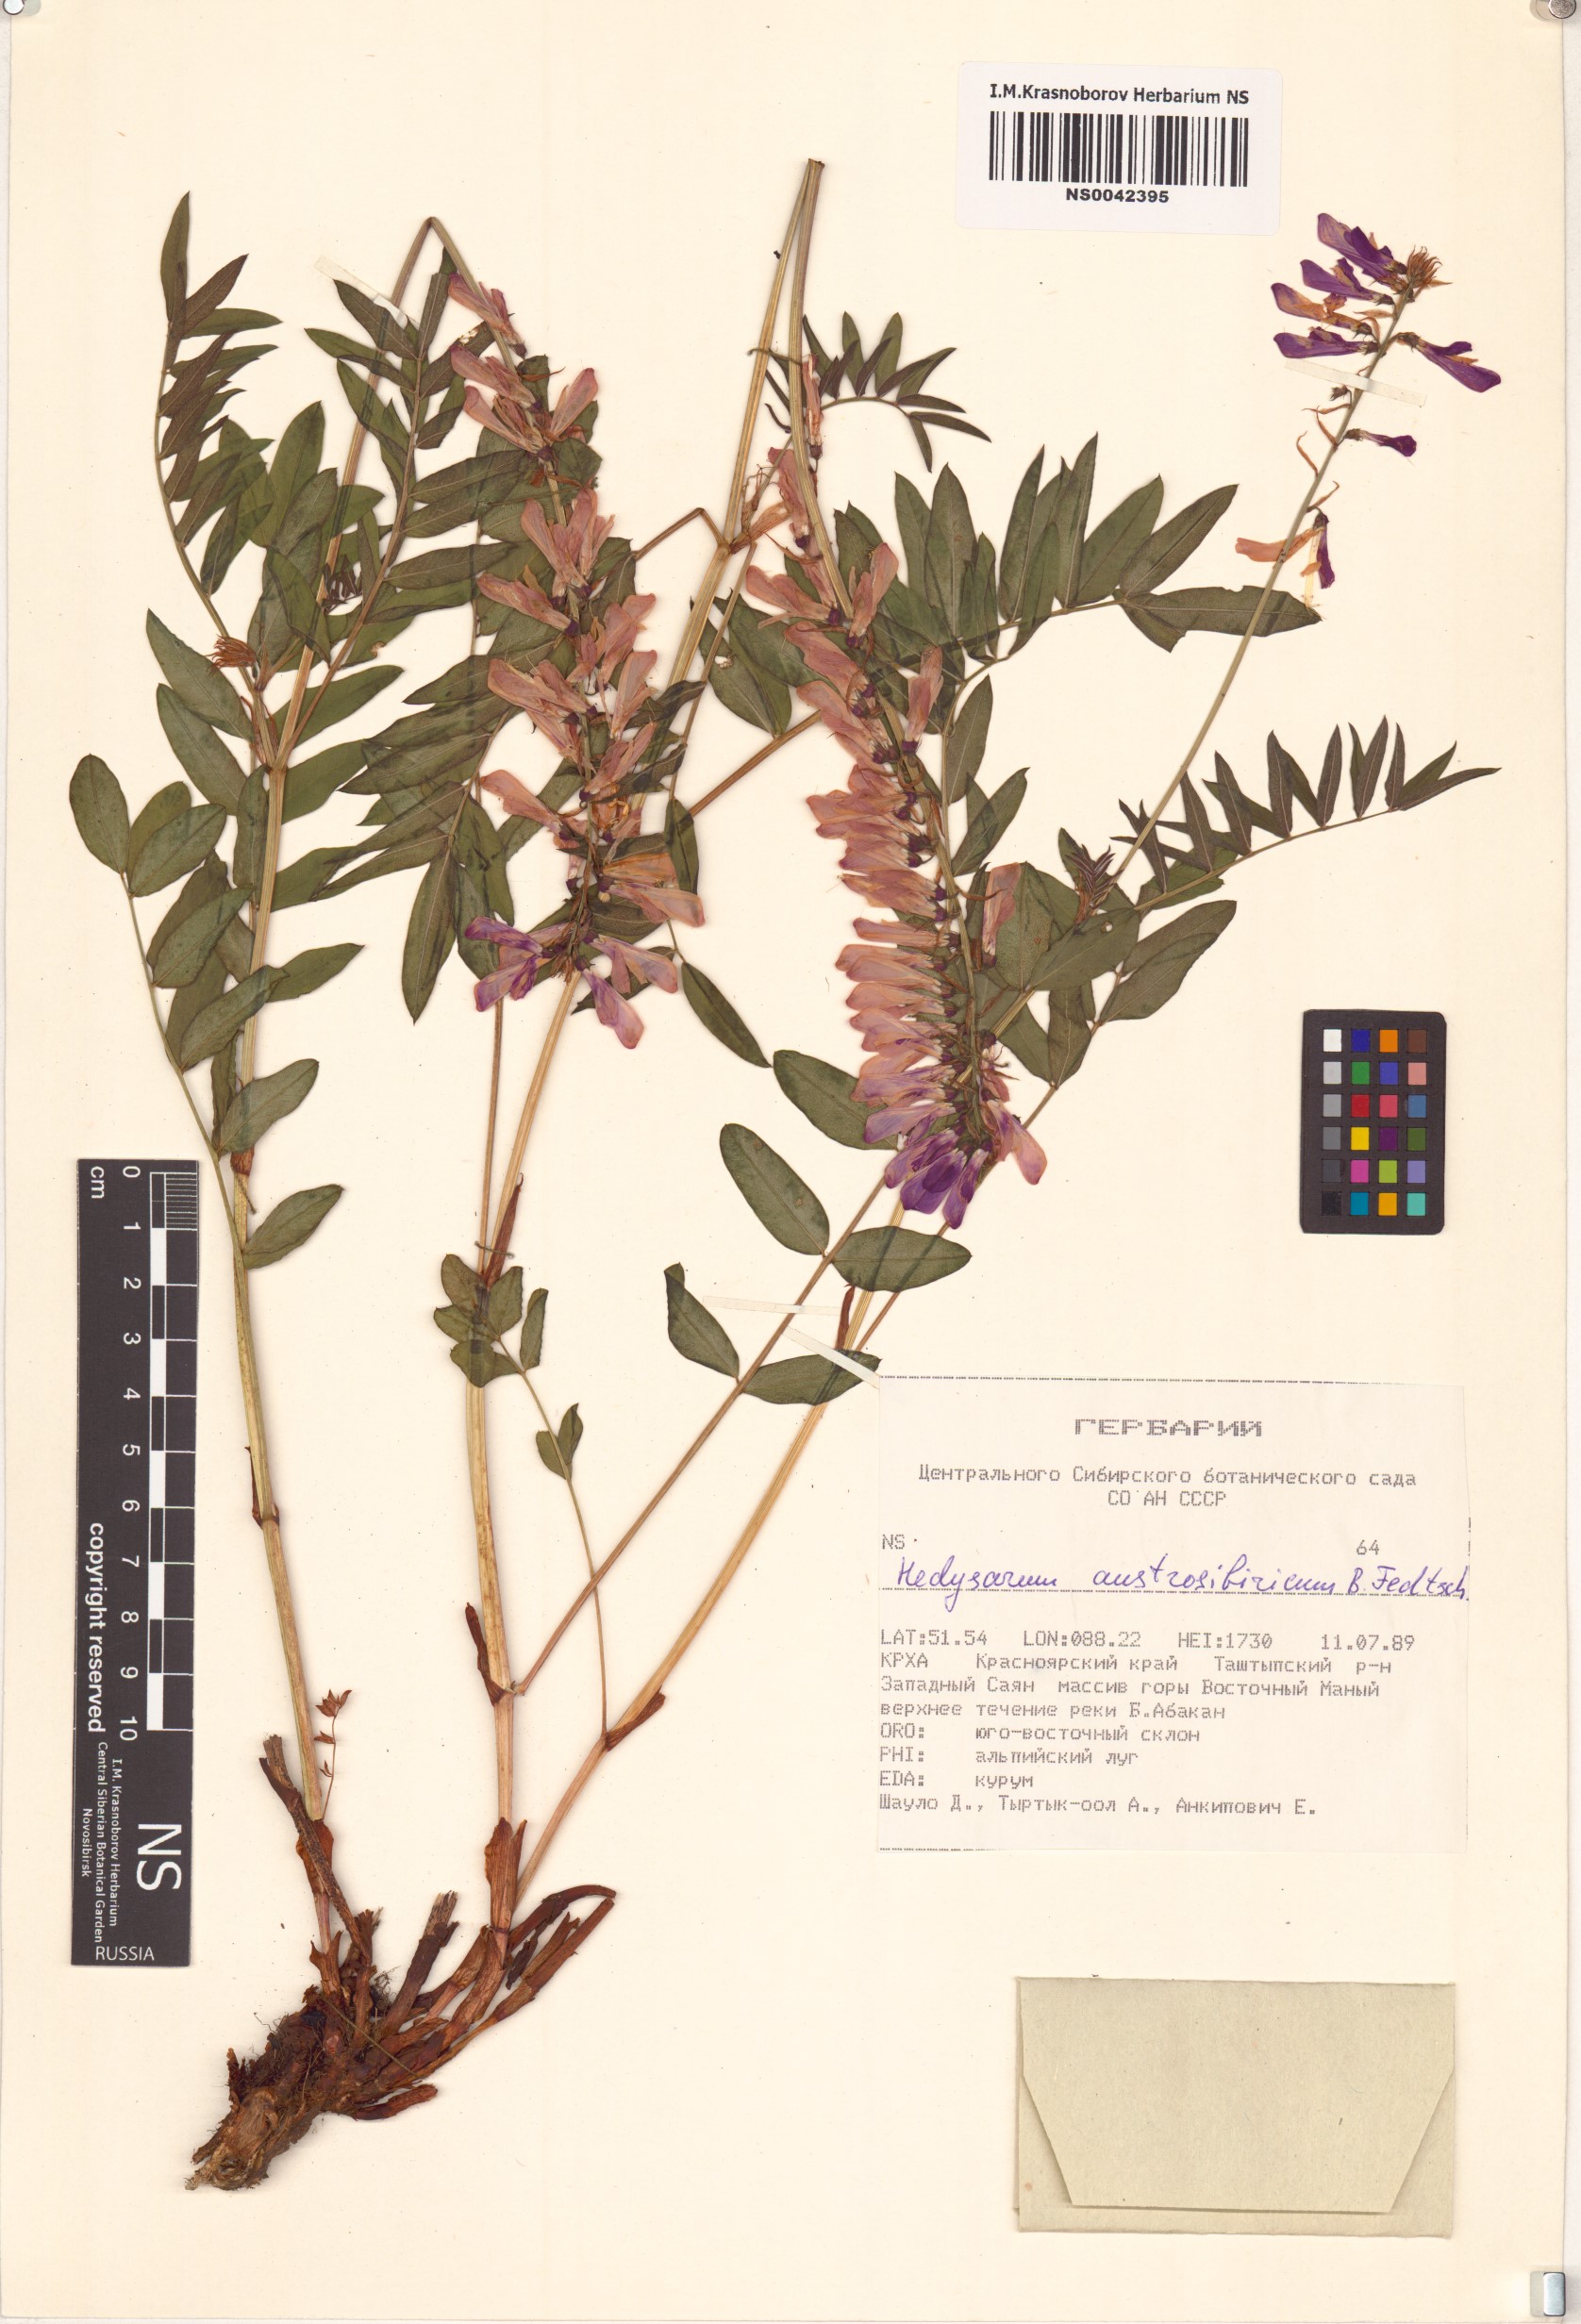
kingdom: Plantae
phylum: Tracheophyta
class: Magnoliopsida
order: Fabales
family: Fabaceae
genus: Hedysarum
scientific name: Hedysarum neglectum
